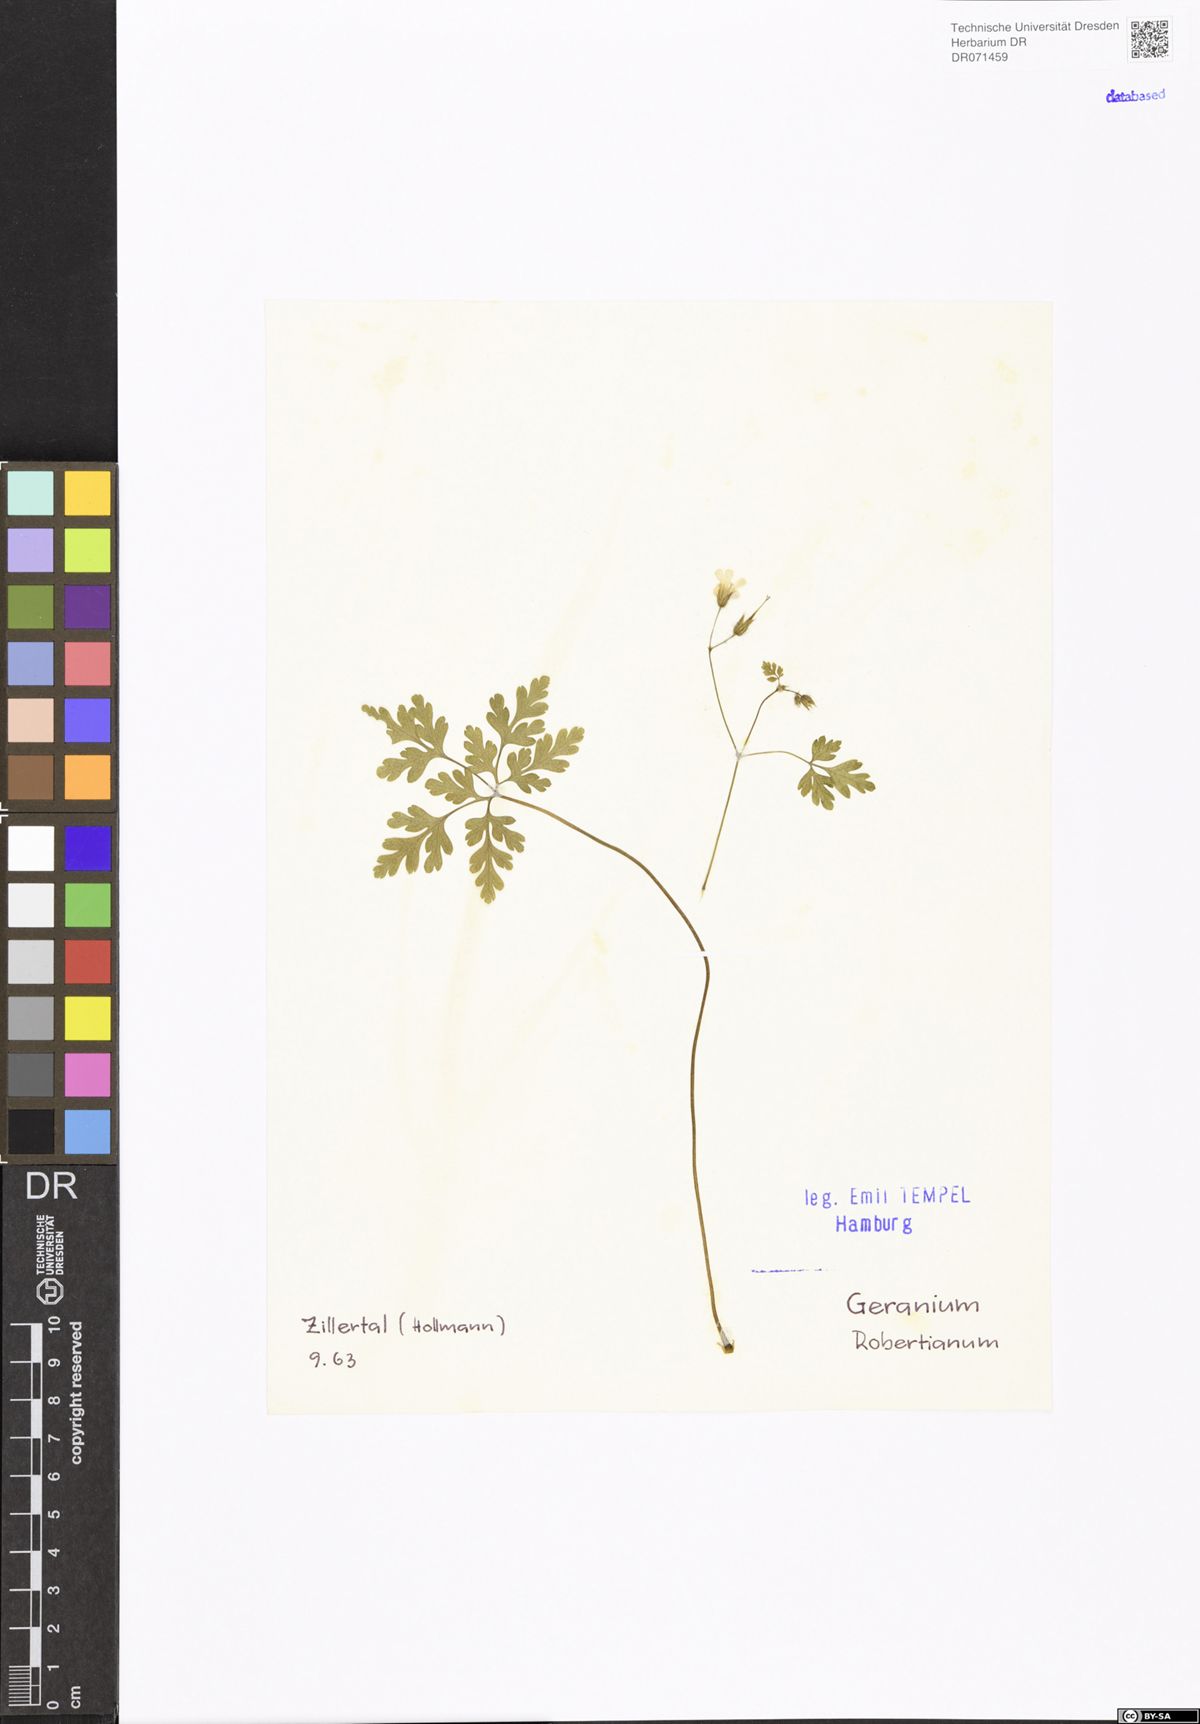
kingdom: Plantae
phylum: Tracheophyta
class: Magnoliopsida
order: Geraniales
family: Geraniaceae
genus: Geranium
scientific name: Geranium robertianum
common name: Herb-robert
